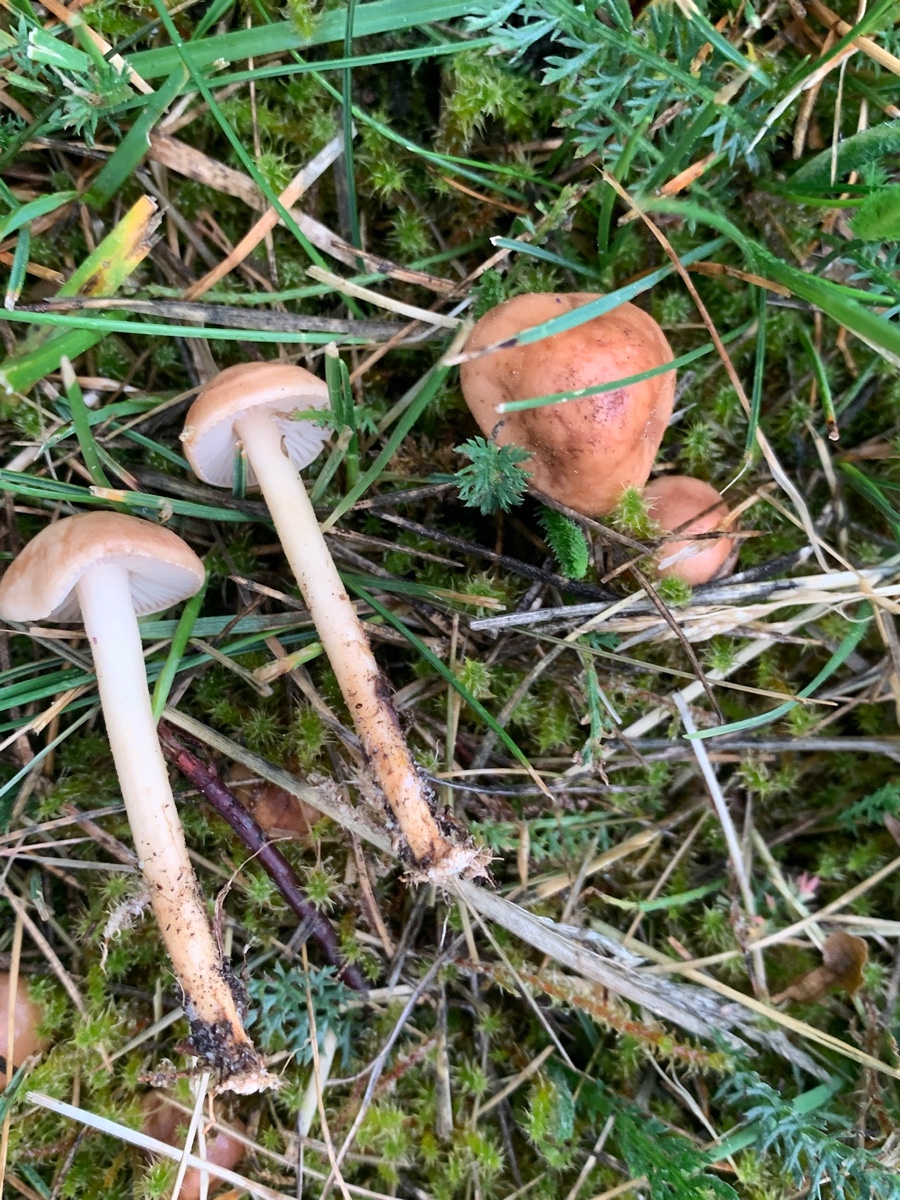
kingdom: Fungi
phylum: Basidiomycota
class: Agaricomycetes
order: Agaricales
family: Marasmiaceae
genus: Marasmius
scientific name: Marasmius oreades
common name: elledans-bruskhat
